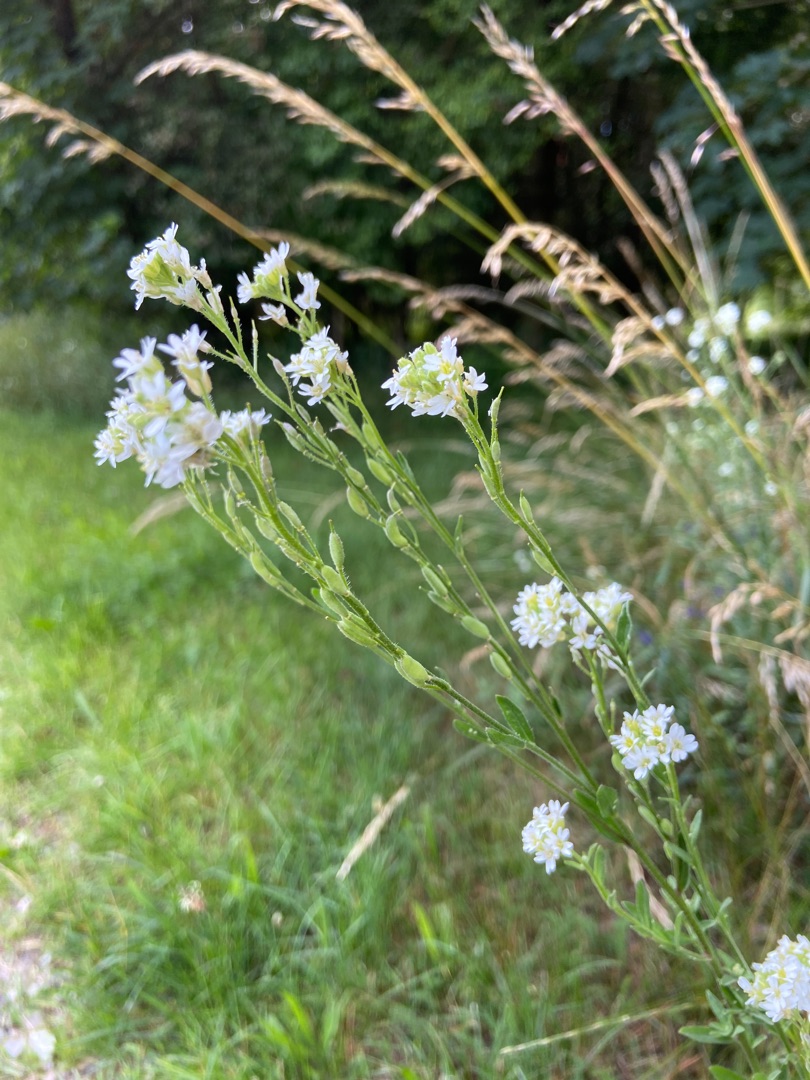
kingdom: Plantae
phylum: Tracheophyta
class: Magnoliopsida
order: Brassicales
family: Brassicaceae
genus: Berteroa
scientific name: Berteroa incana
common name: Kløvplade
